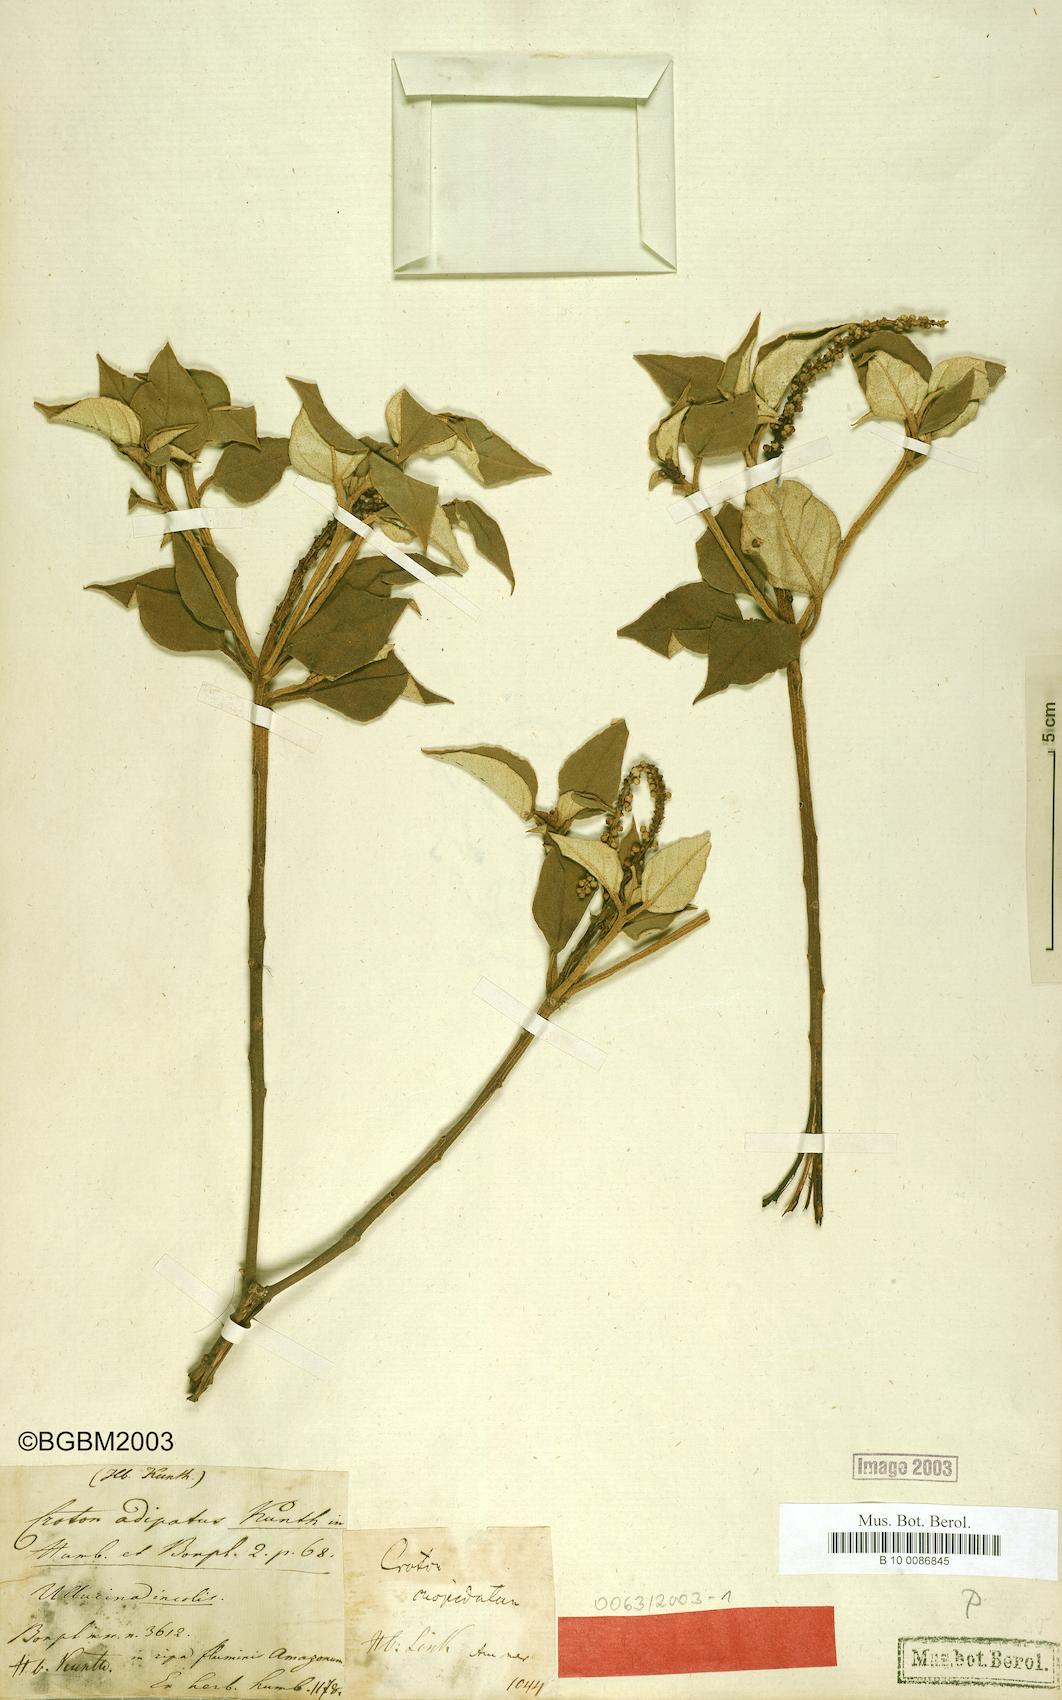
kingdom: Plantae
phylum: Tracheophyta
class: Magnoliopsida
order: Malpighiales
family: Euphorbiaceae
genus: Croton
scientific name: Croton adipatus
